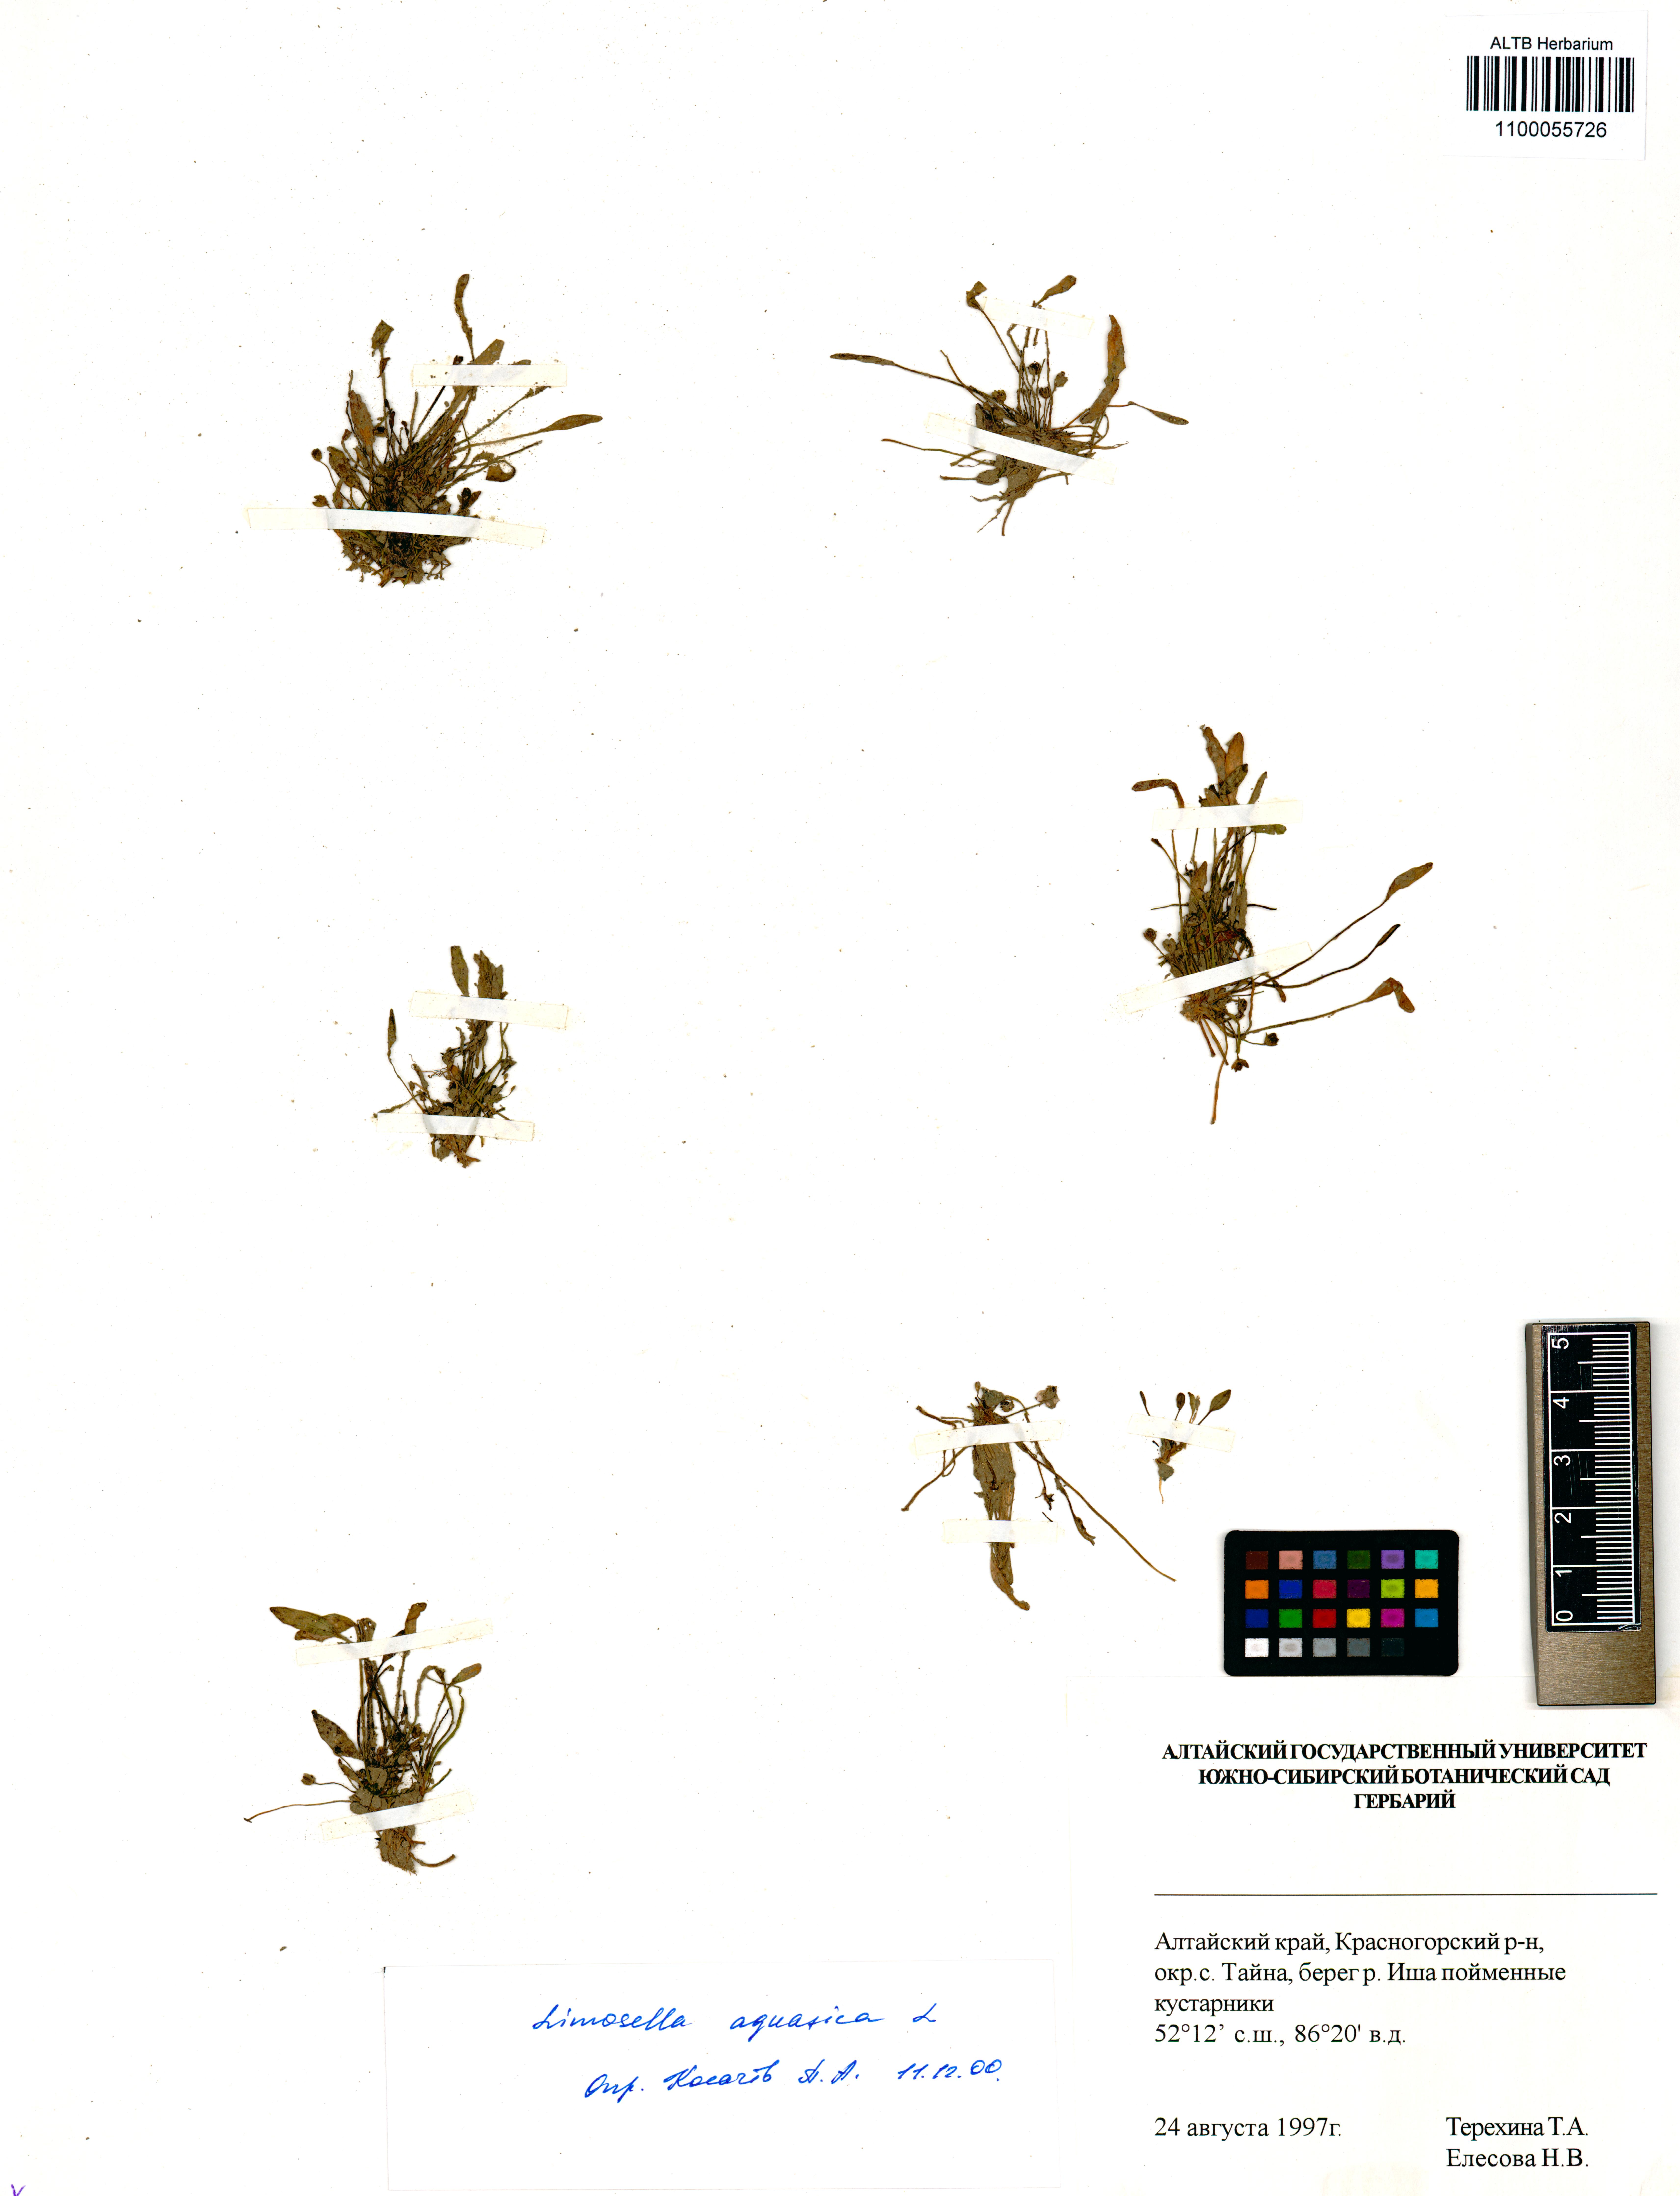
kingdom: Plantae
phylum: Tracheophyta
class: Magnoliopsida
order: Lamiales
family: Scrophulariaceae
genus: Limosella
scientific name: Limosella aquatica
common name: Mudwort
